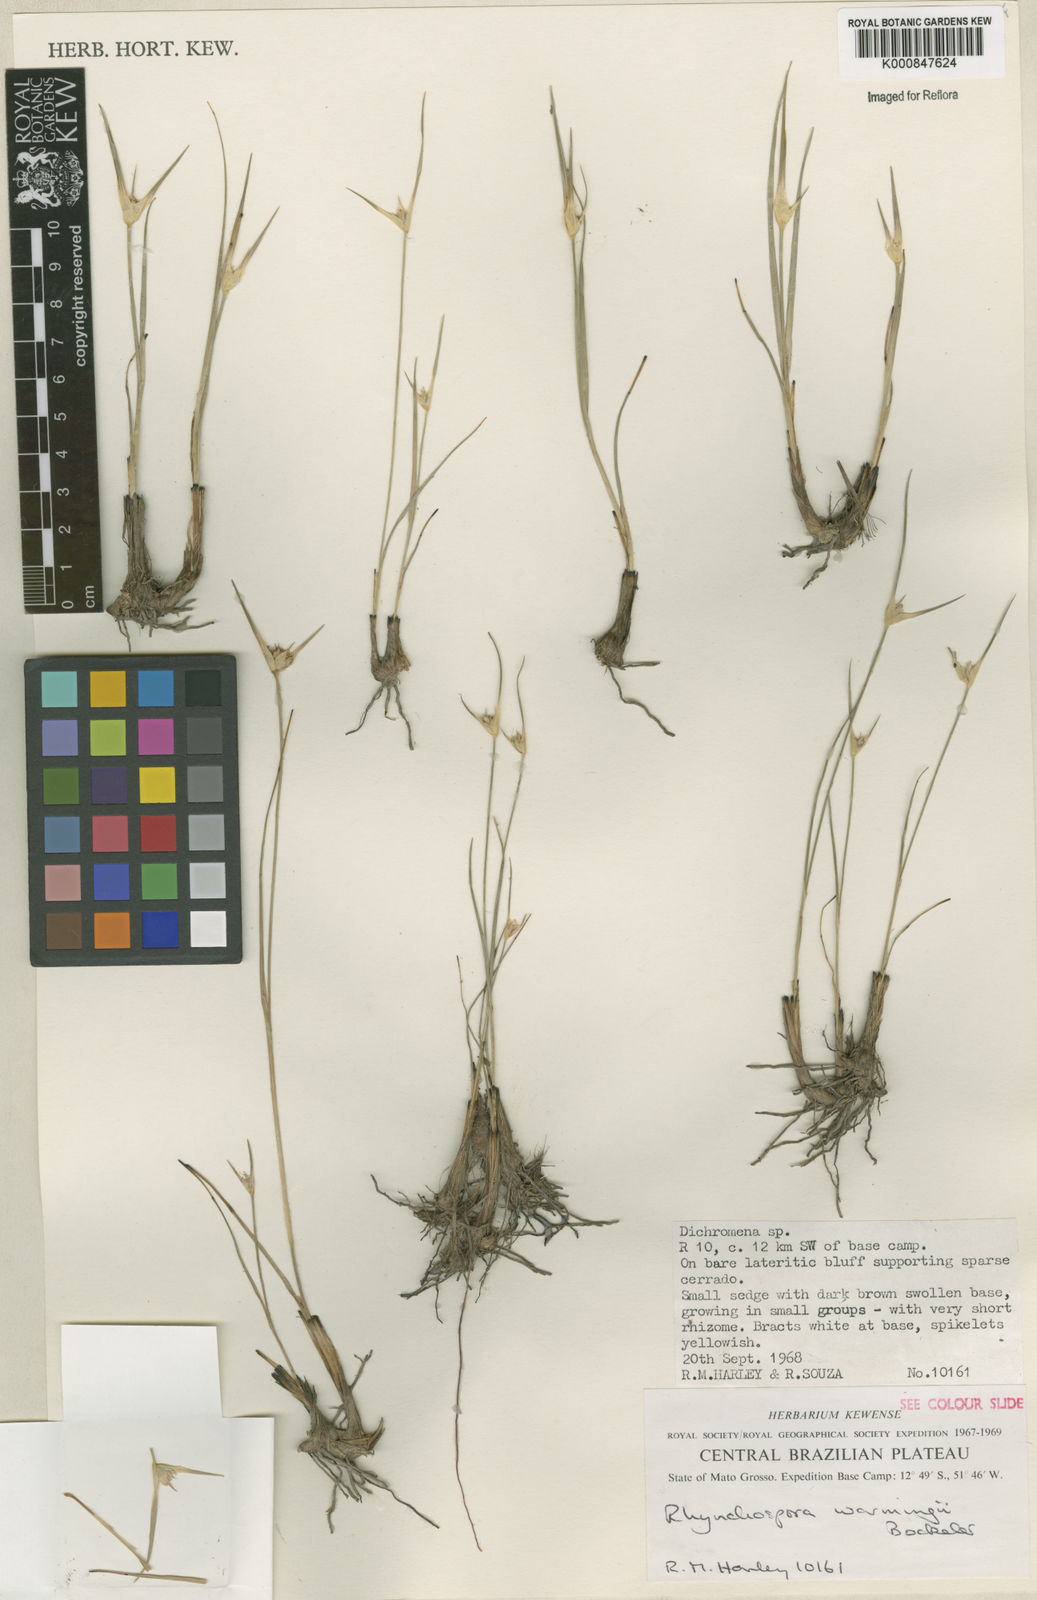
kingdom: Plantae
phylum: Tracheophyta
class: Liliopsida
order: Poales
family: Cyperaceae
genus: Rhynchospora
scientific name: Rhynchospora warmingii
